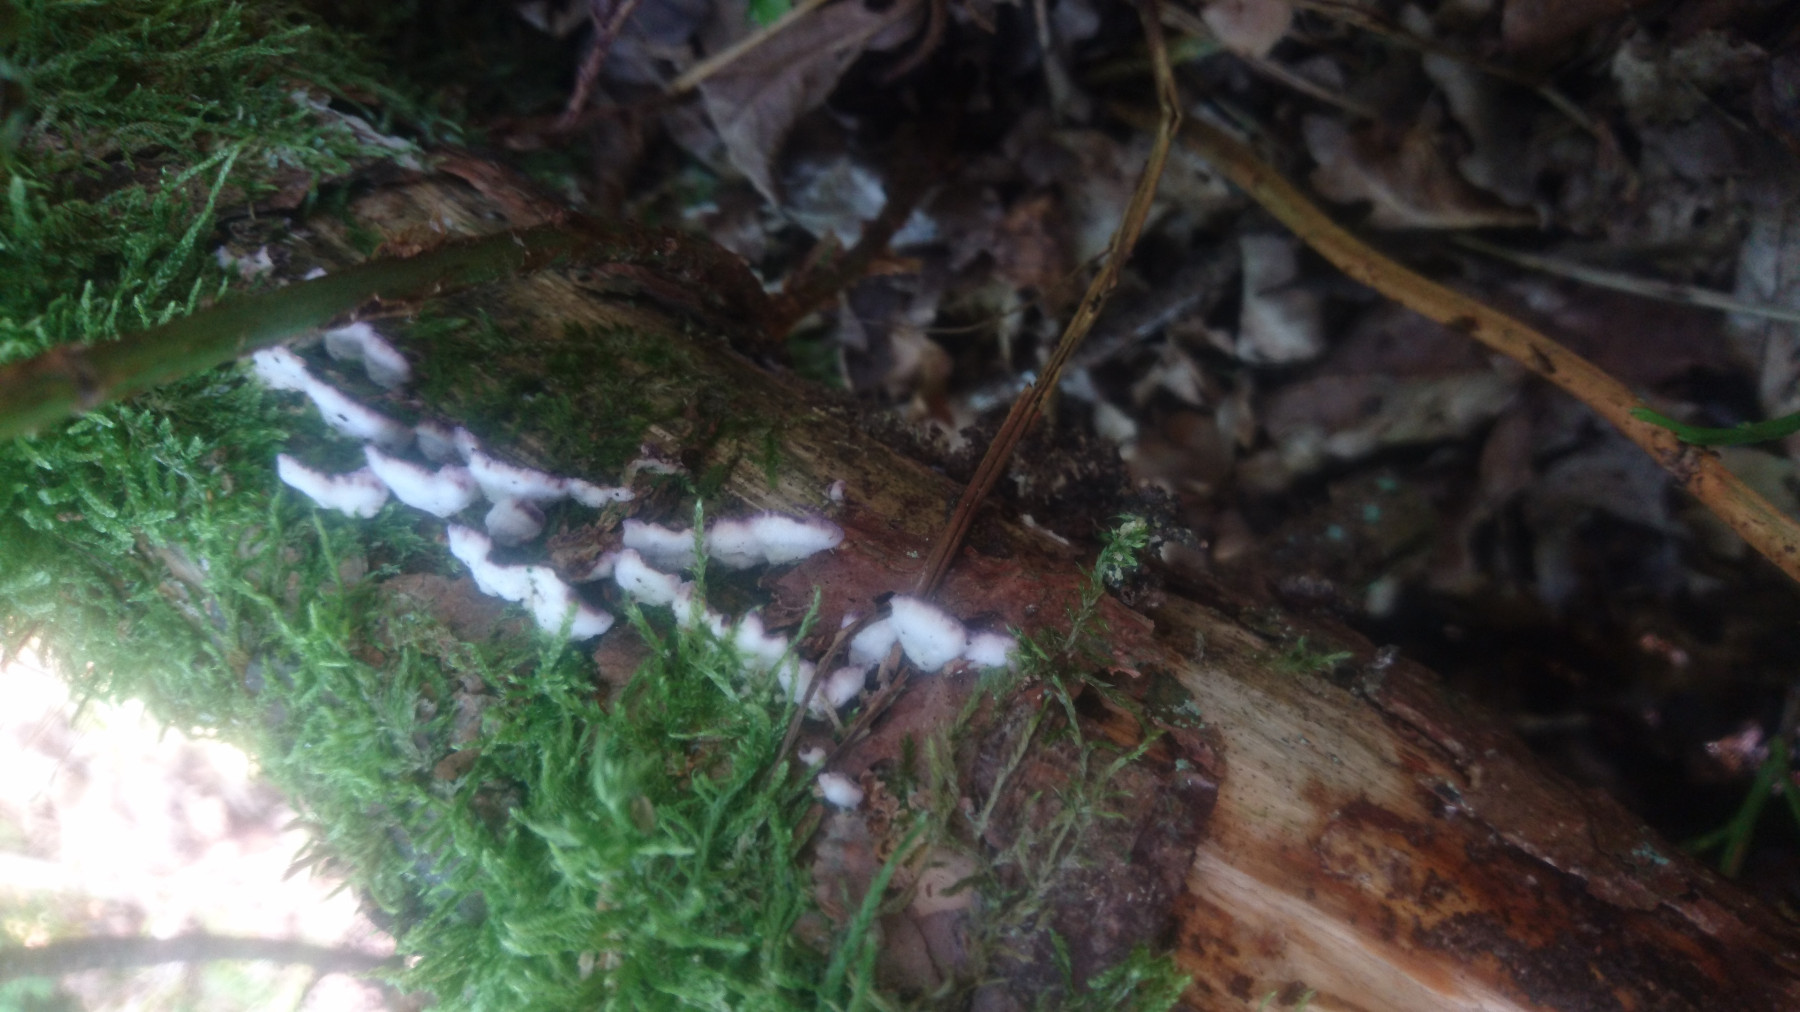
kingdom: Fungi
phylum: Basidiomycota
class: Agaricomycetes
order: Hymenochaetales
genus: Trichaptum
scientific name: Trichaptum fuscoviolaceum
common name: tandet violporesvamp
